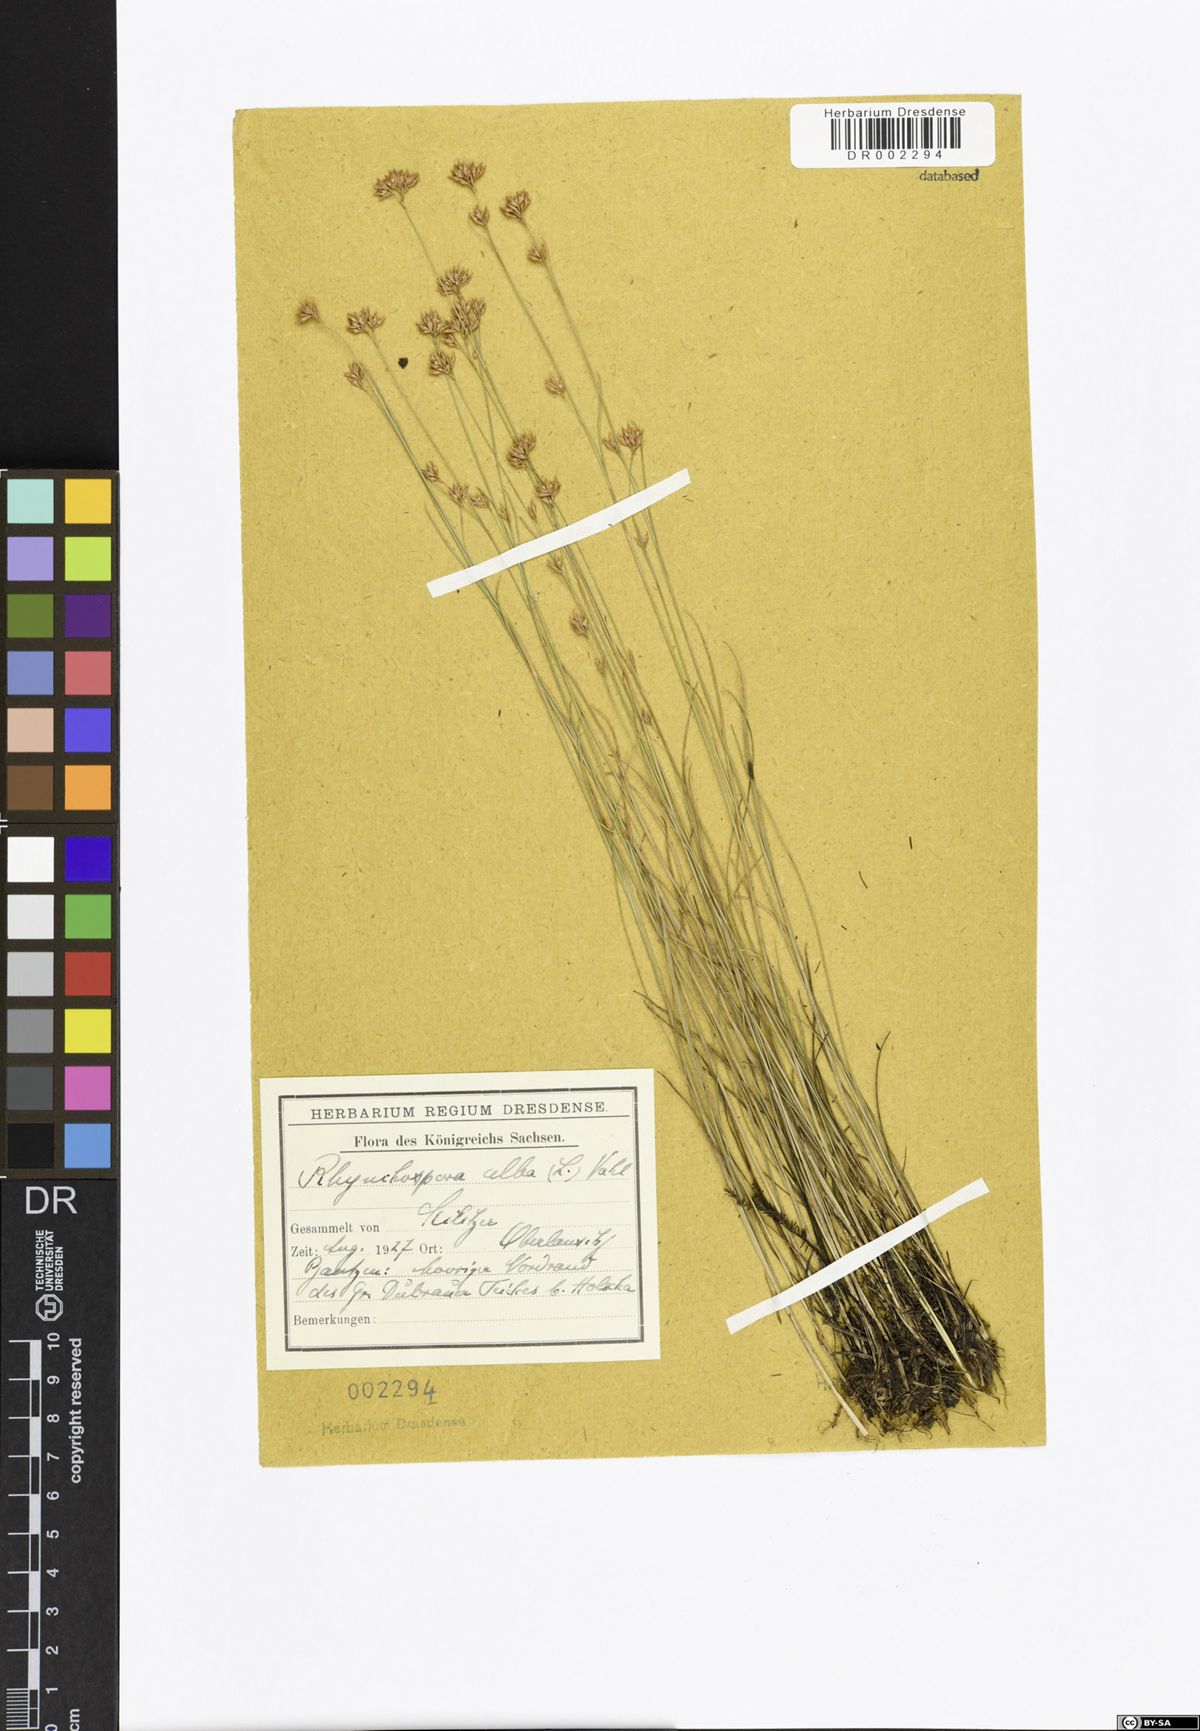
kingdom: Plantae
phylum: Tracheophyta
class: Liliopsida
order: Poales
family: Cyperaceae
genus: Rhynchospora
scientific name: Rhynchospora alba
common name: White beak-sedge
